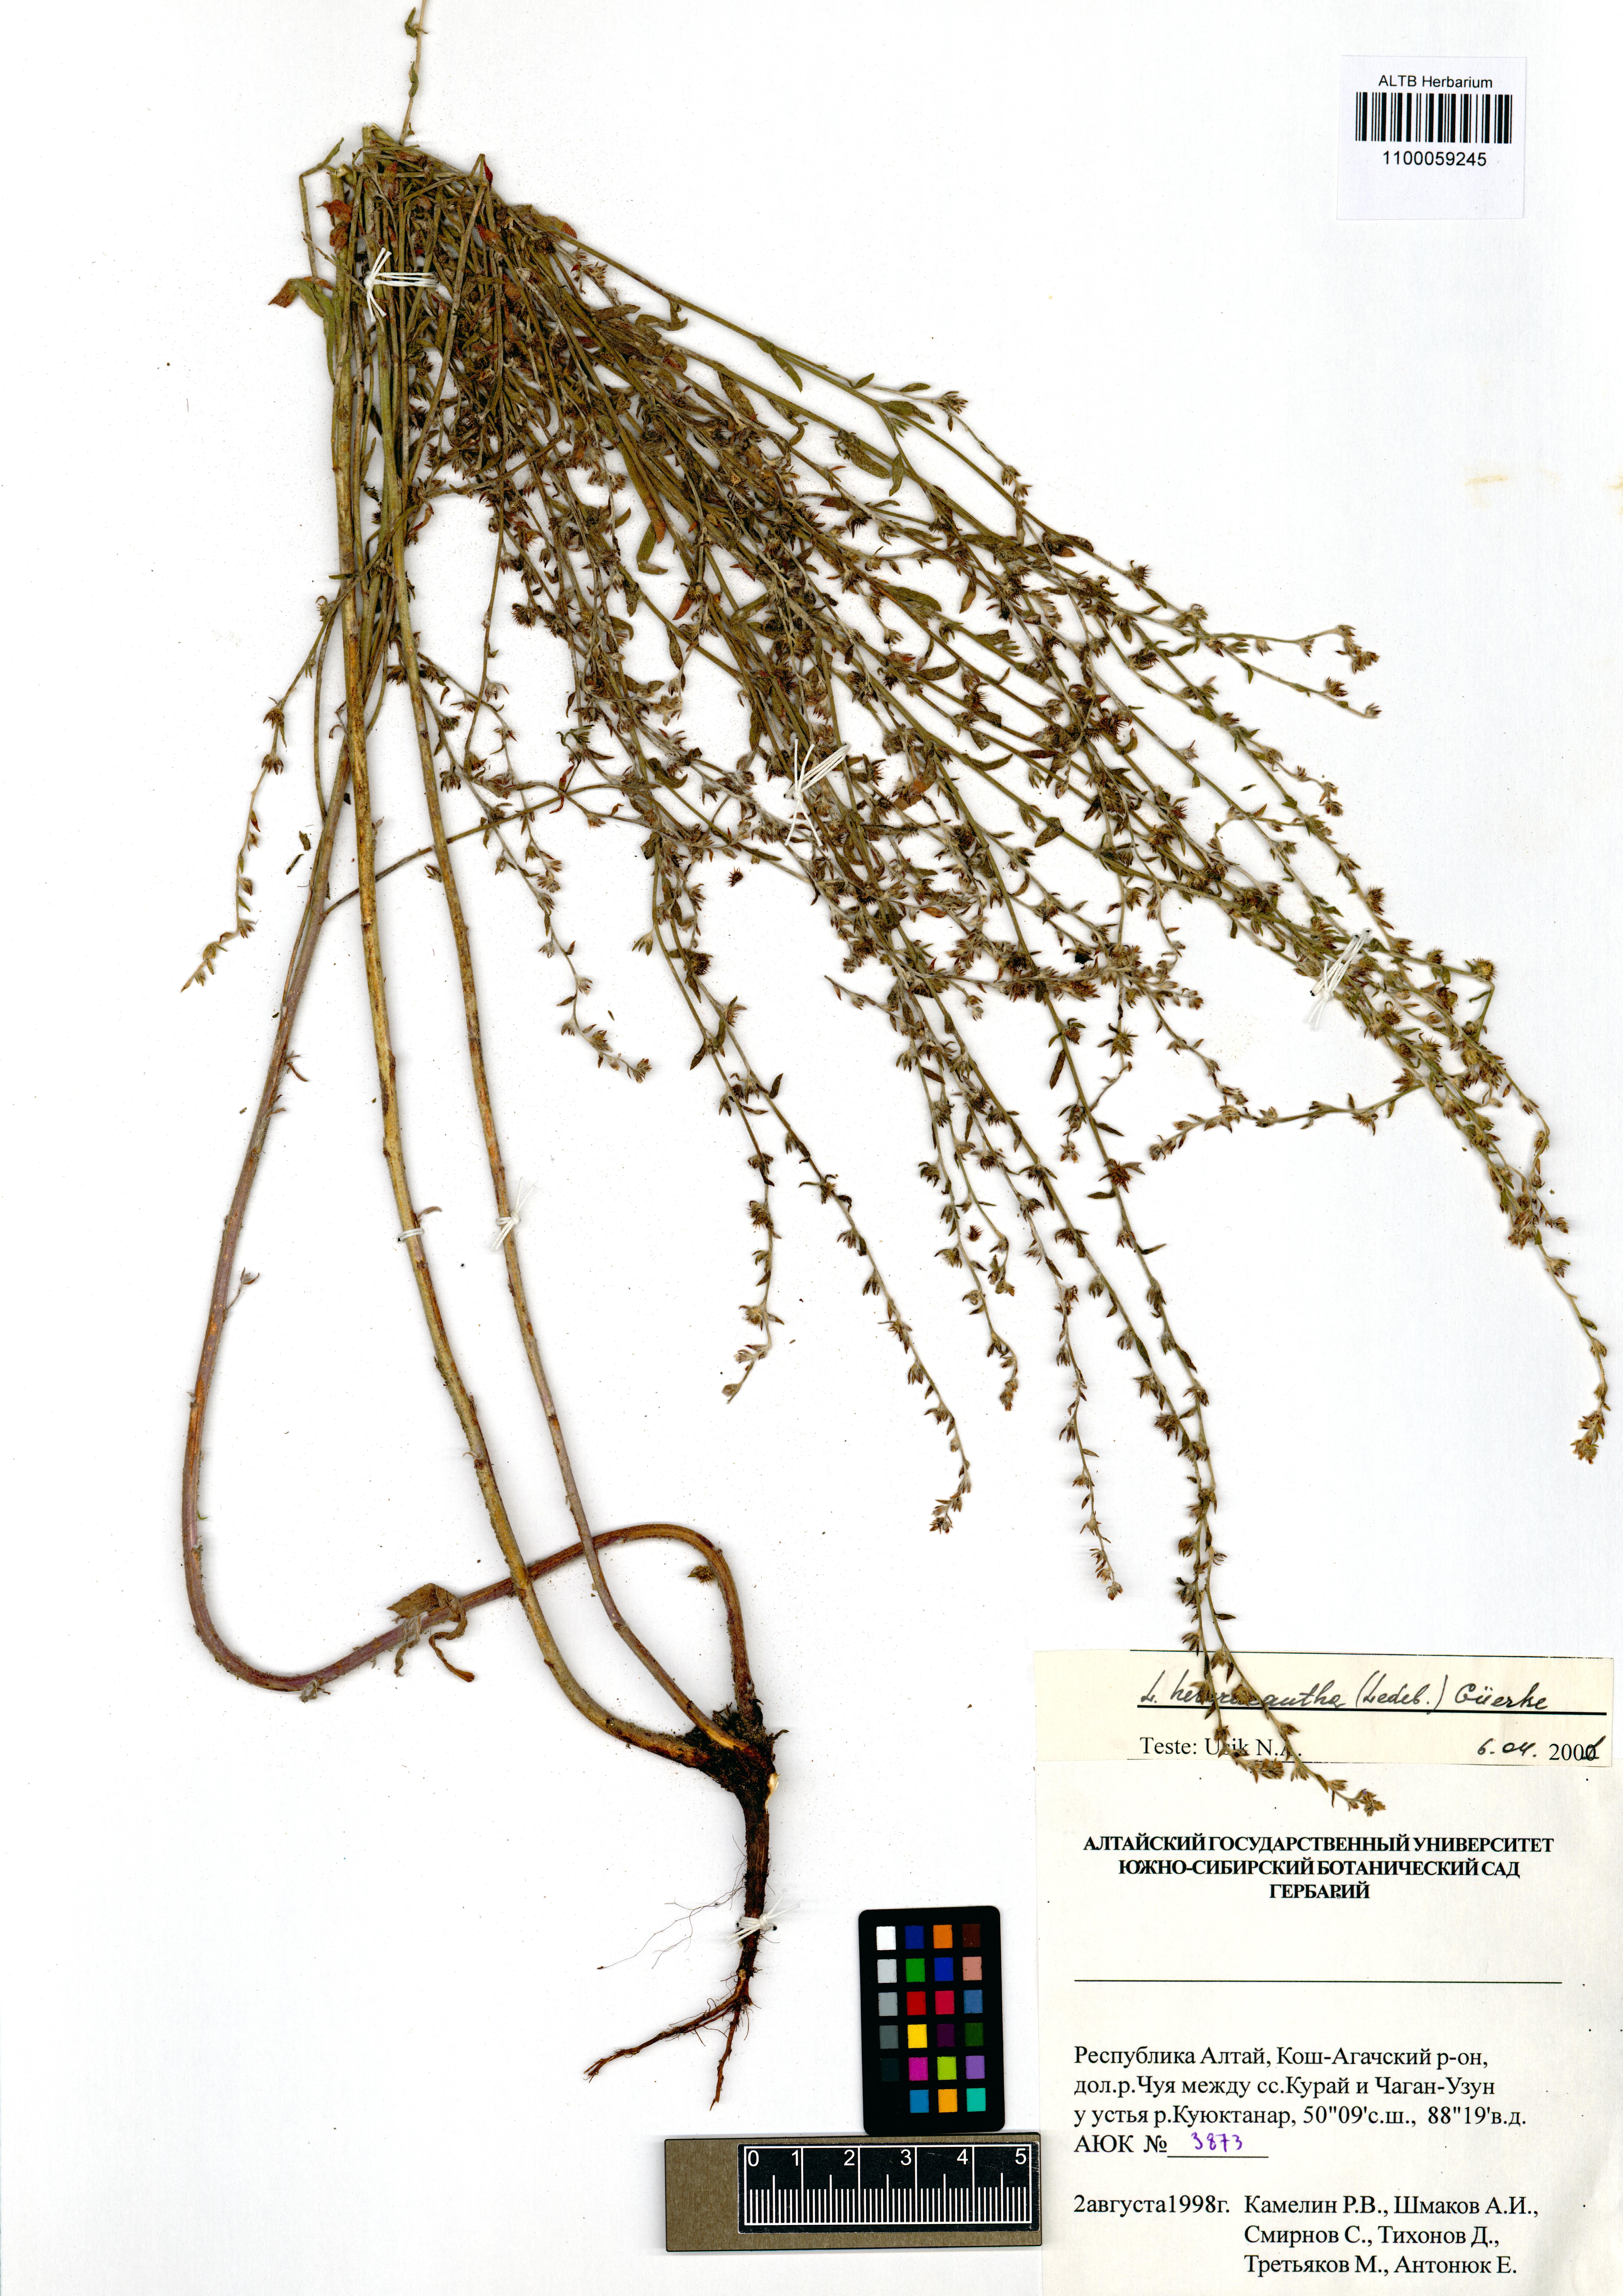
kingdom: Plantae
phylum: Tracheophyta
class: Magnoliopsida
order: Boraginales
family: Boraginaceae
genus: Lappula
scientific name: Lappula heteracantha
